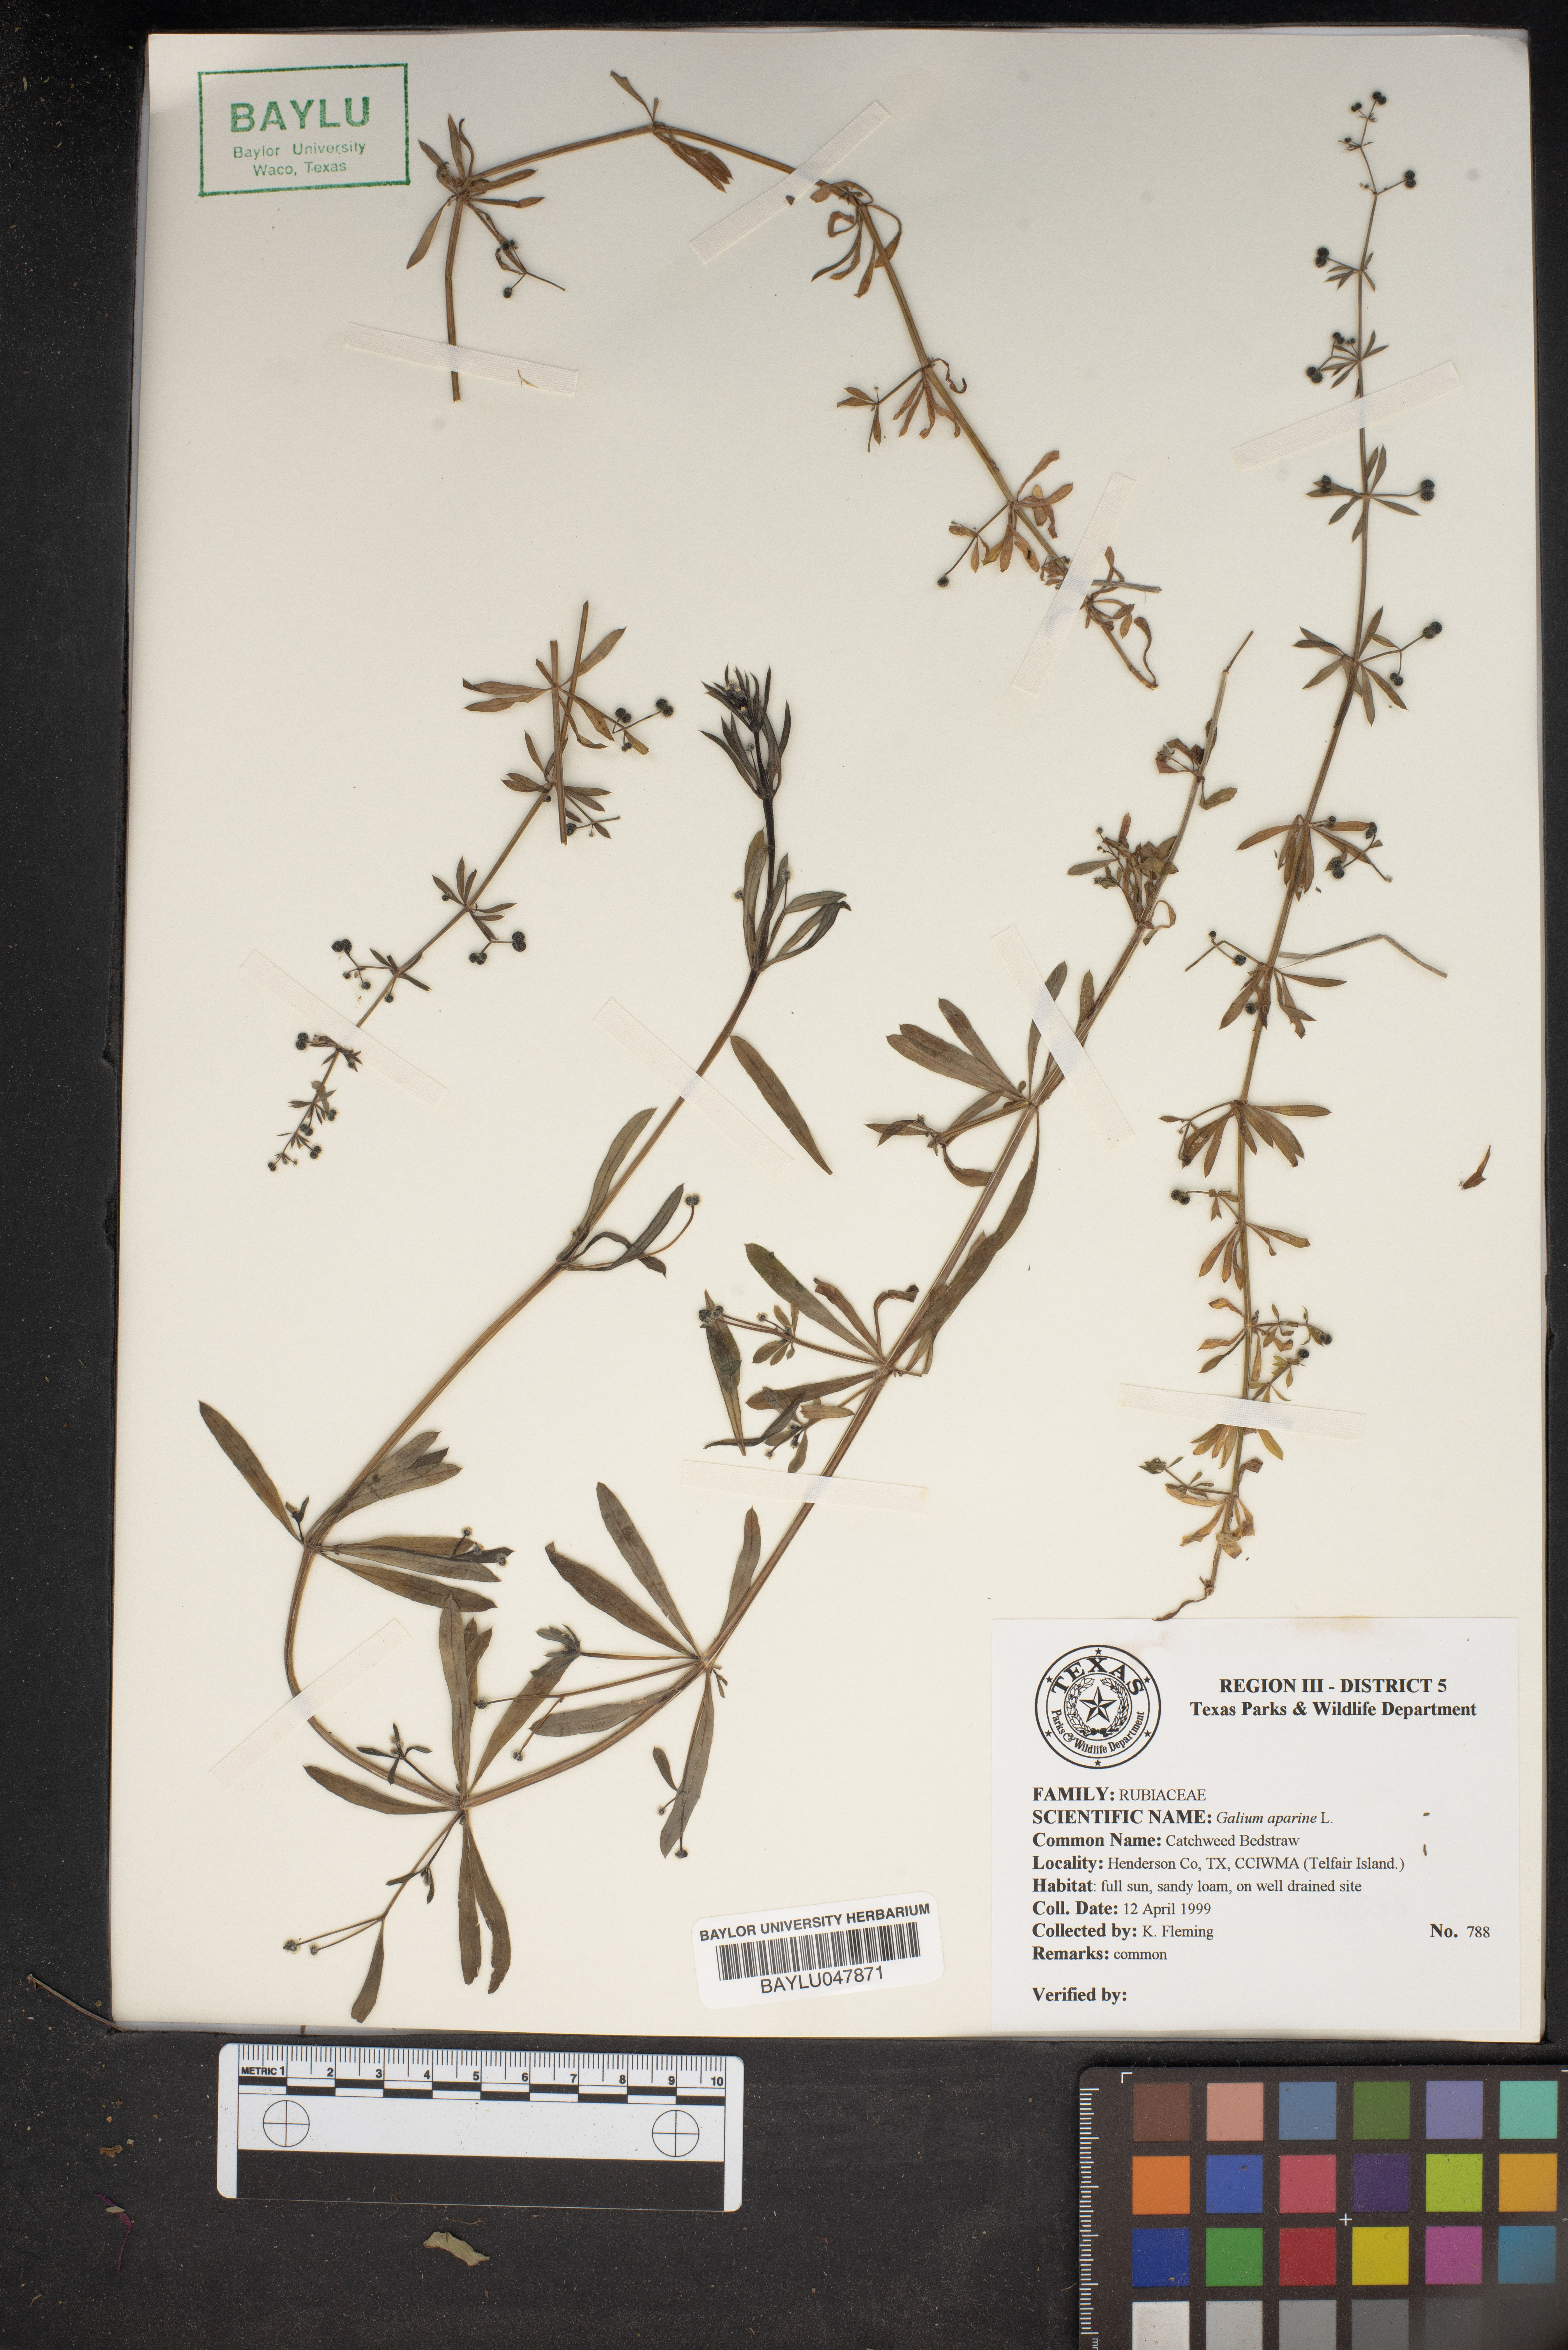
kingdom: Plantae
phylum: Tracheophyta
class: Magnoliopsida
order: Gentianales
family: Rubiaceae
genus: Galium
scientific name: Galium aparine
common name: Cleavers
